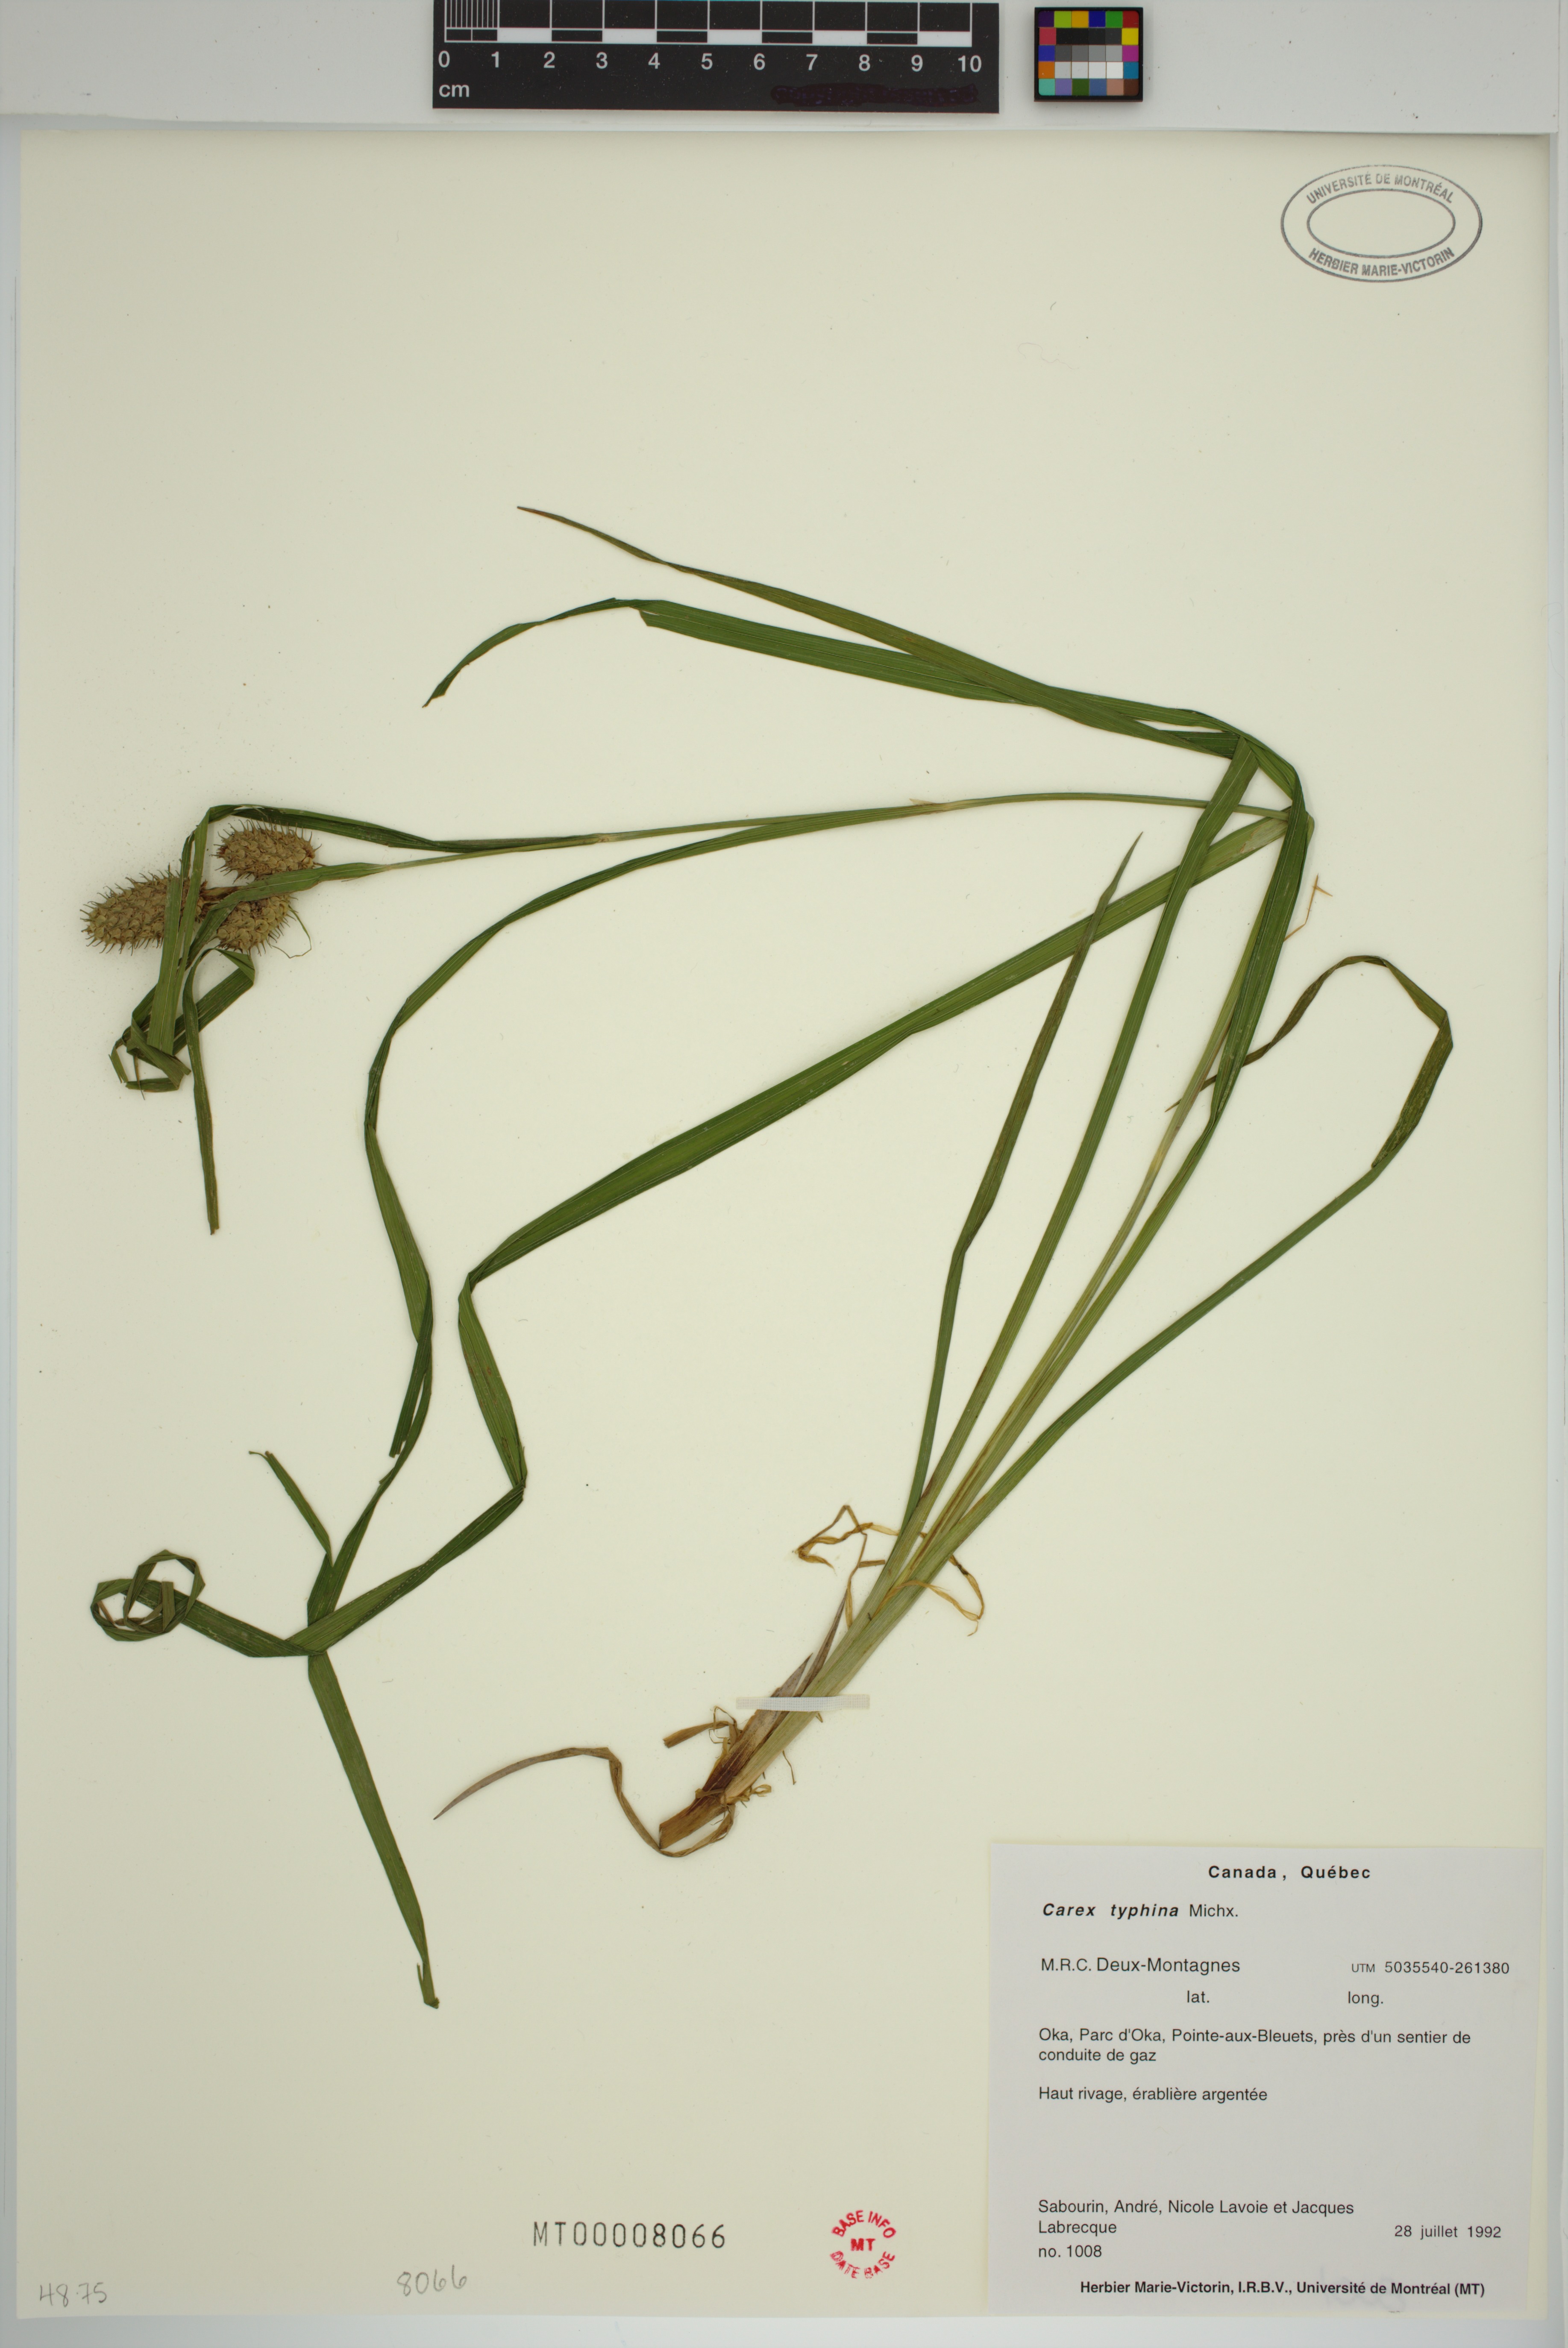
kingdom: Plantae
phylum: Tracheophyta
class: Liliopsida
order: Poales
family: Cyperaceae
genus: Carex
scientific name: Carex typhina
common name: Cattail sedge
